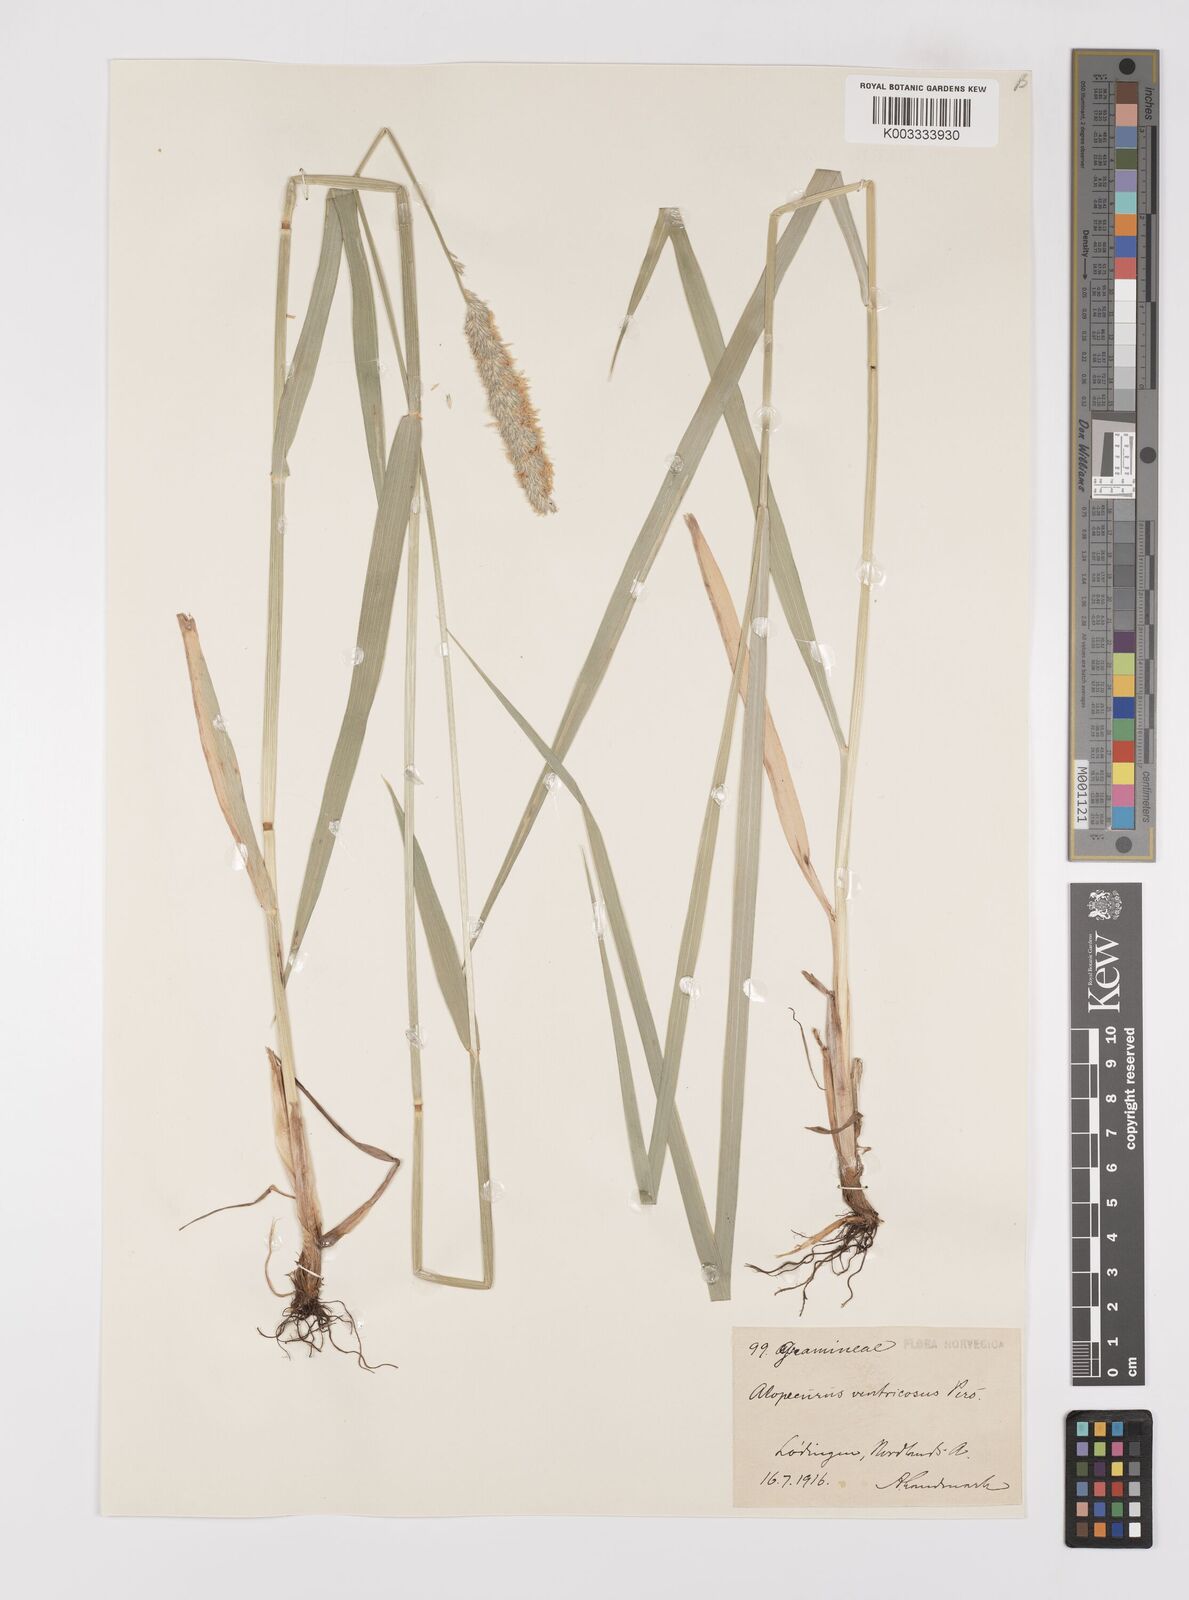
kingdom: Plantae
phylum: Tracheophyta
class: Liliopsida
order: Poales
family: Poaceae
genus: Alopecurus
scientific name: Alopecurus arundinaceus
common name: Creeping meadow foxtail
